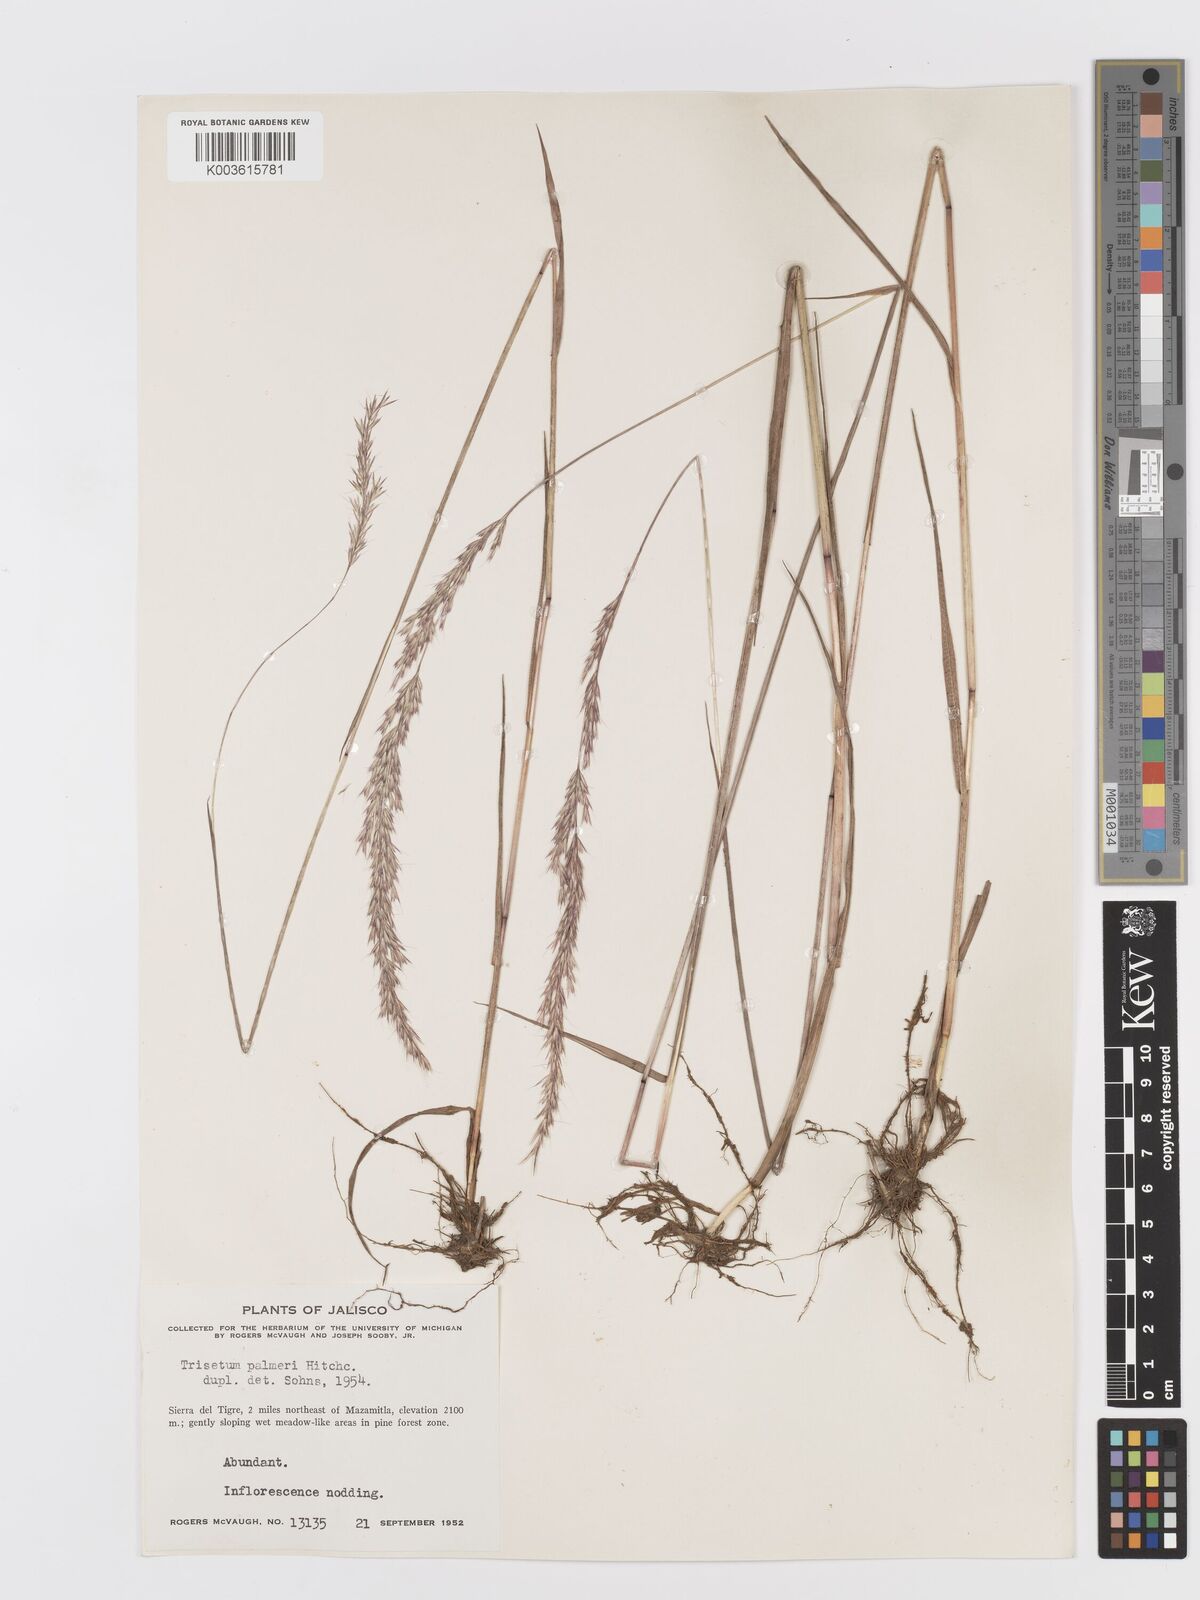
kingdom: Plantae
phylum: Tracheophyta
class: Liliopsida
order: Poales
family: Poaceae
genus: Peyritschia
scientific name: Peyritschia palmeri
